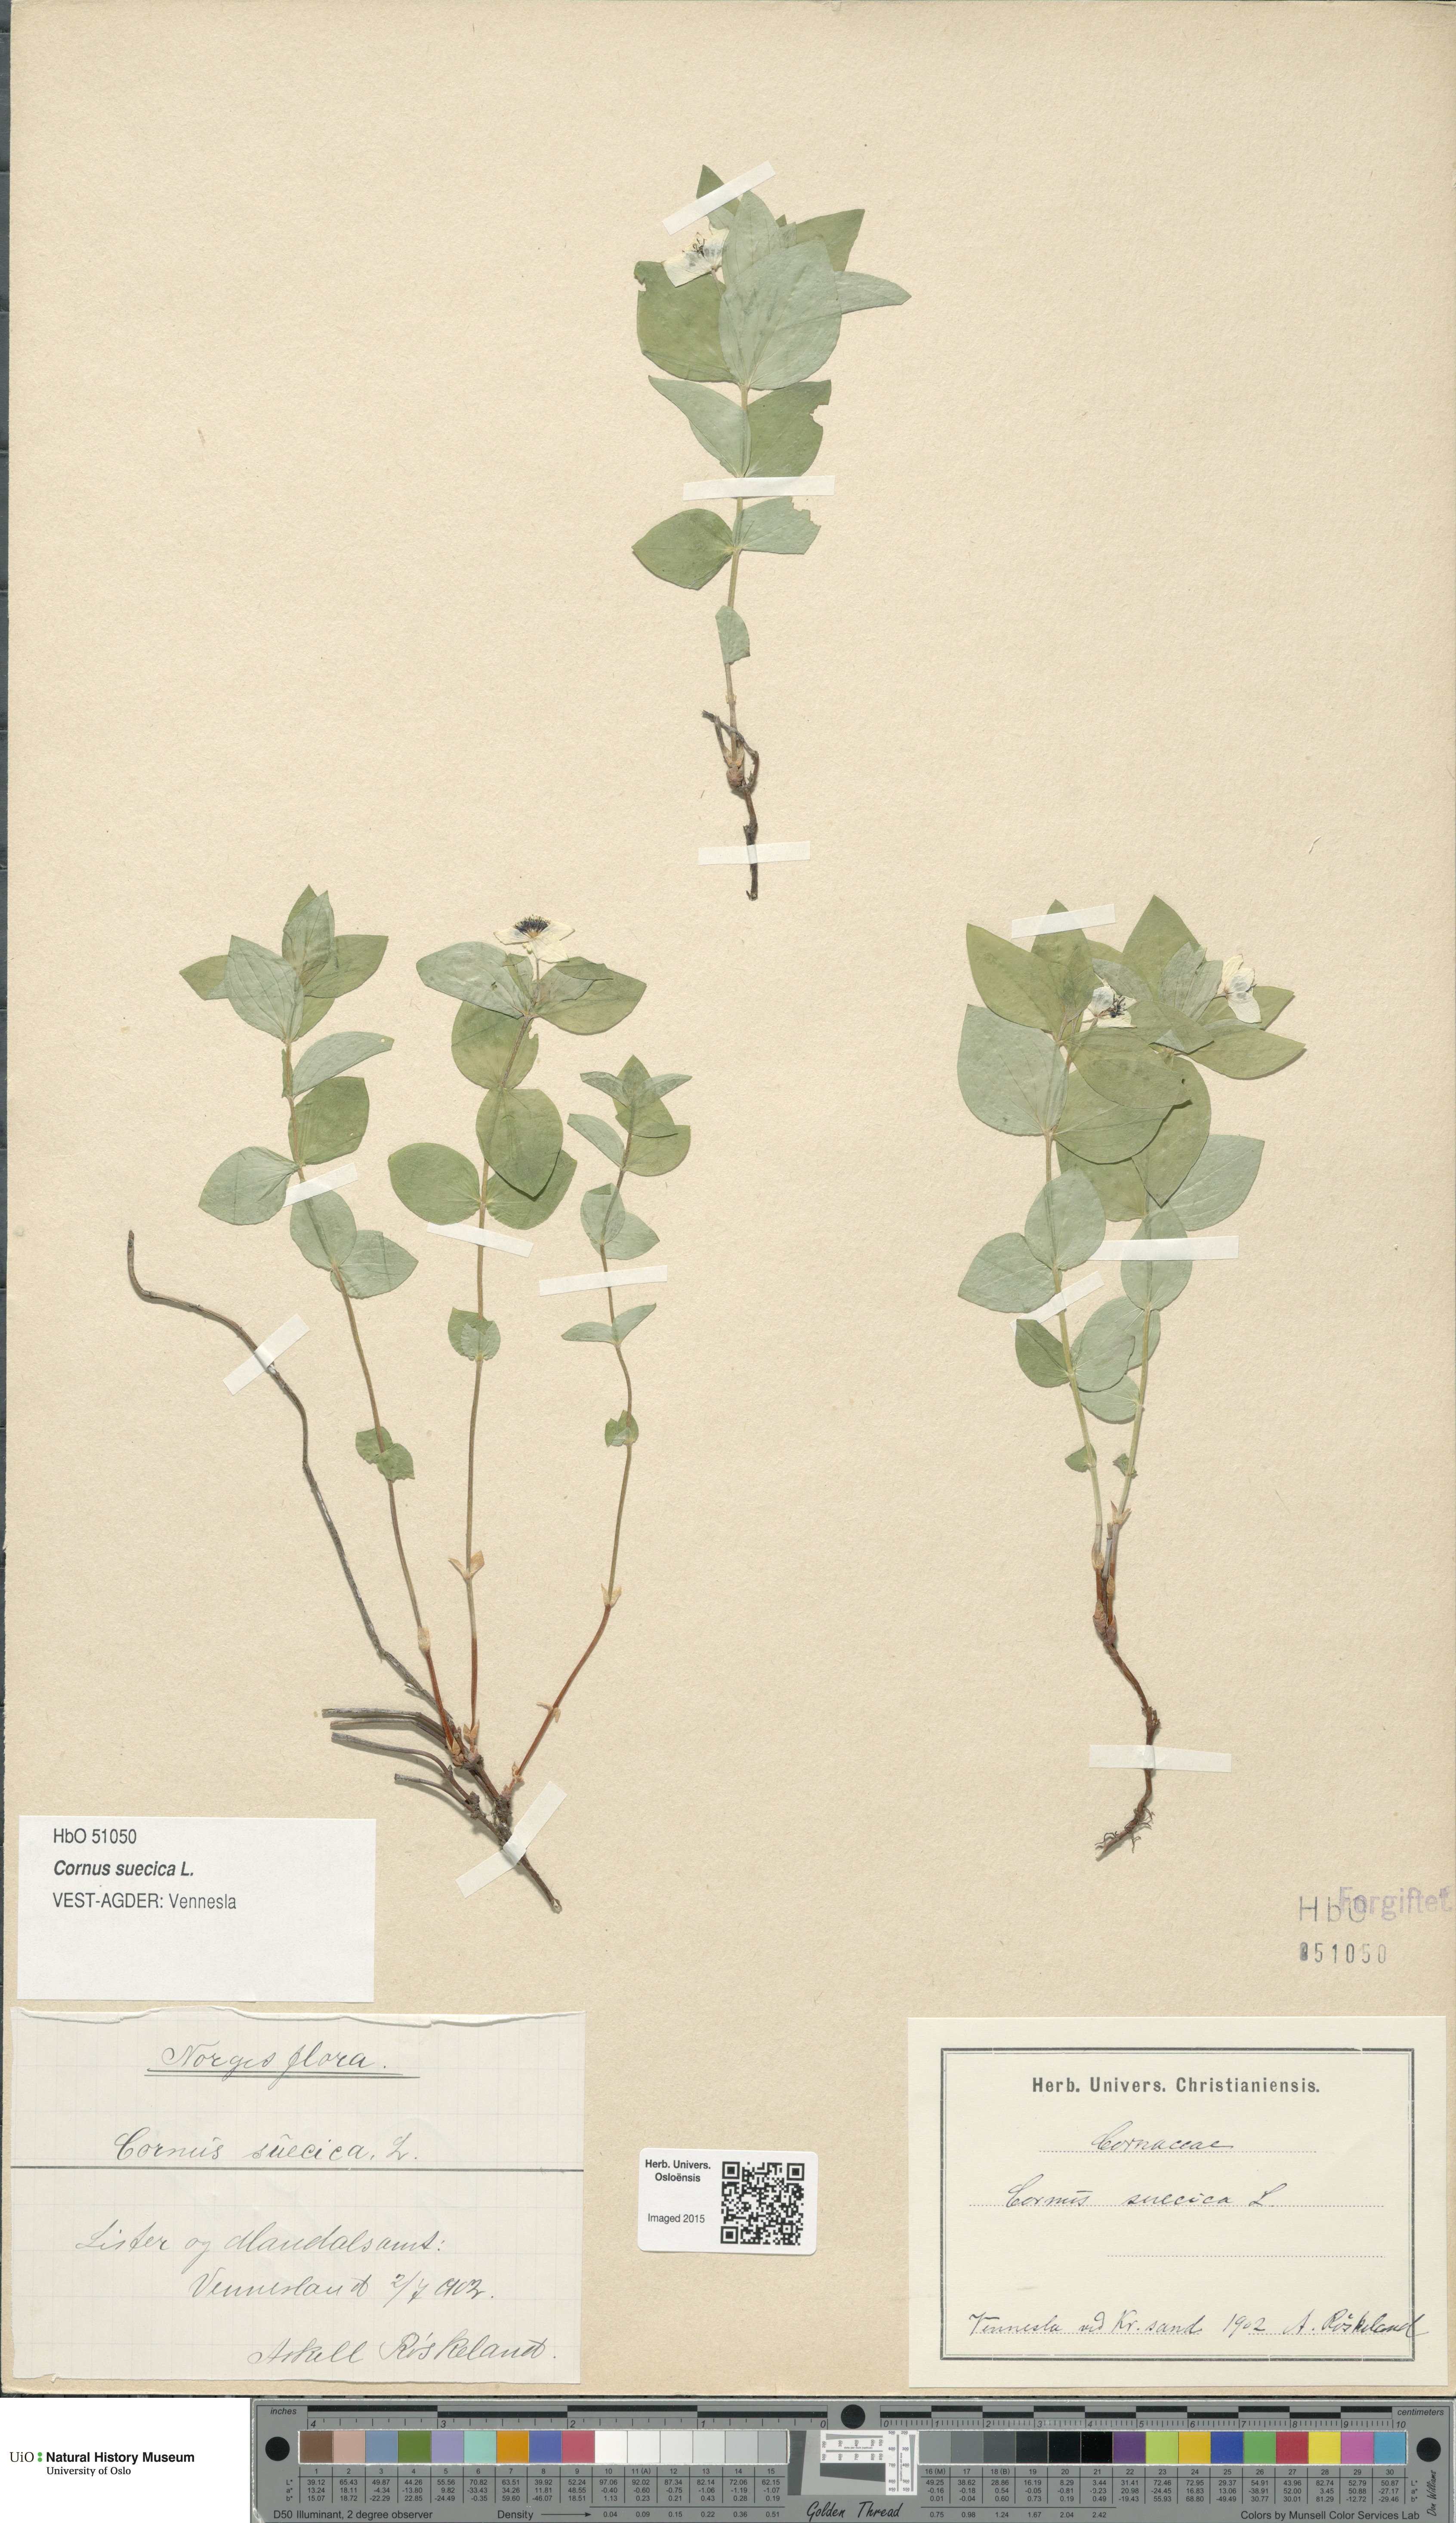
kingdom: Plantae
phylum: Tracheophyta
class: Magnoliopsida
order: Cornales
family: Cornaceae
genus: Cornus
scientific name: Cornus suecica
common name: Dwarf cornel
